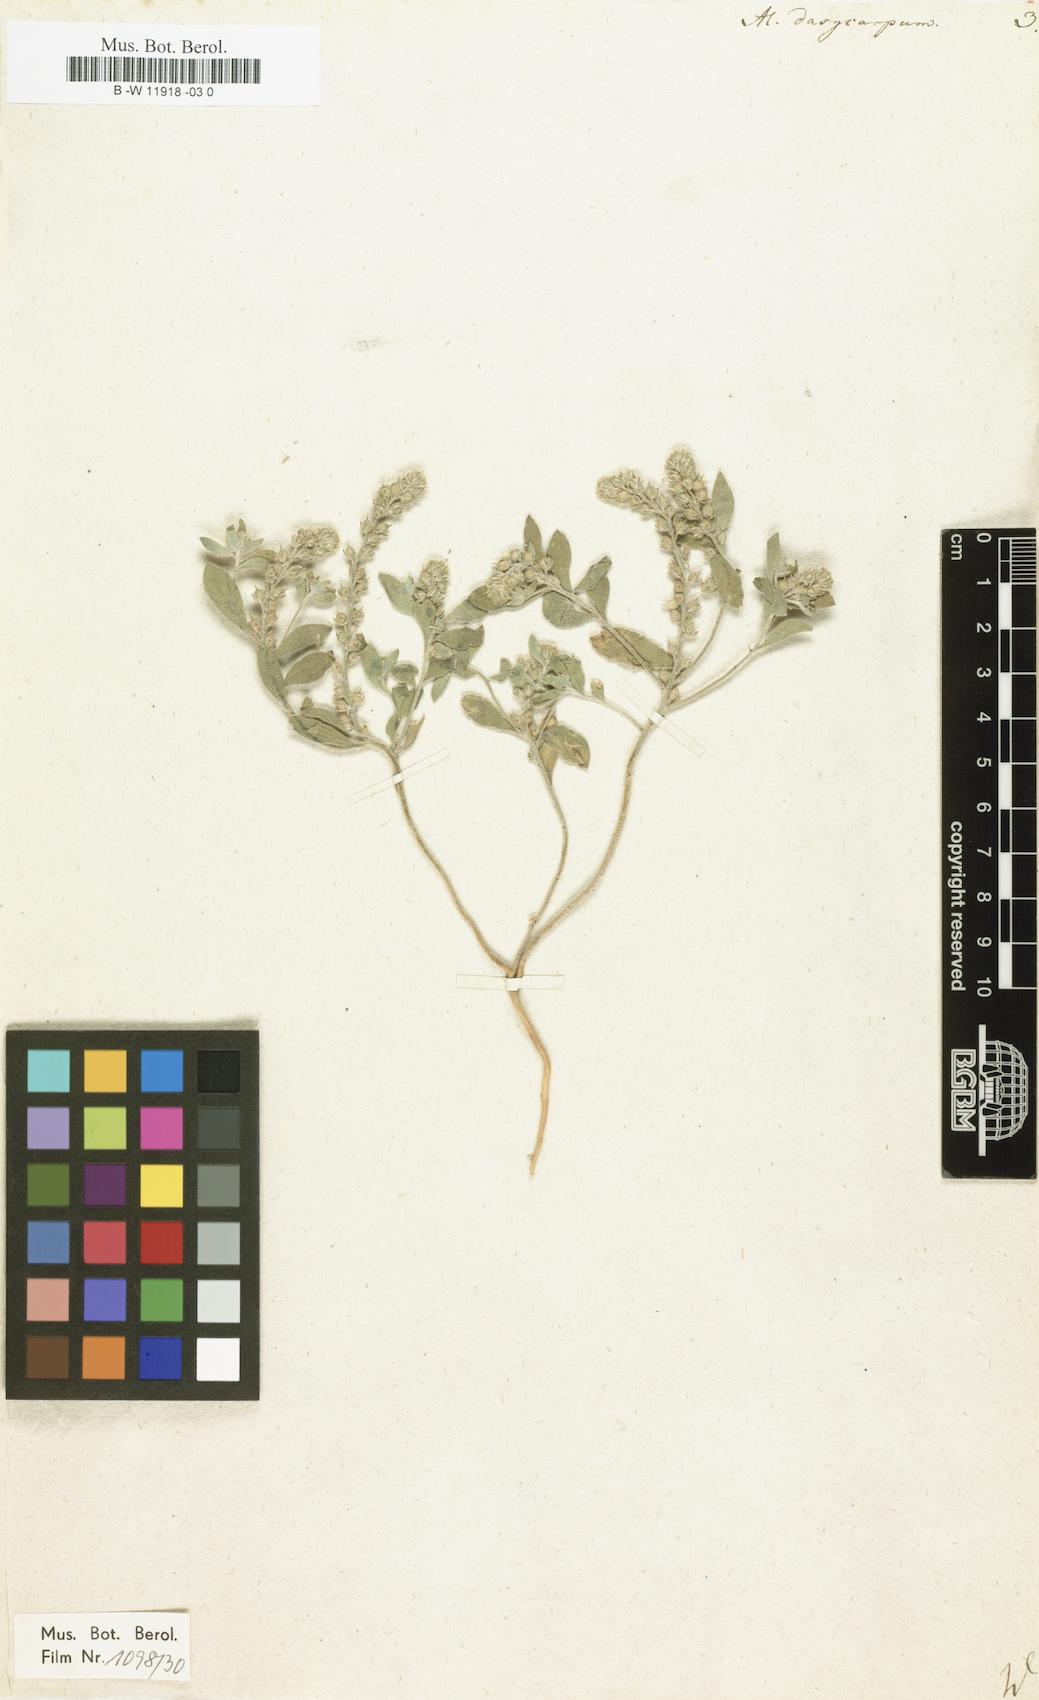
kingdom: Plantae
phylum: Tracheophyta
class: Magnoliopsida
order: Brassicales
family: Brassicaceae
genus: Alyssum
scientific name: Alyssum dasycarpum
